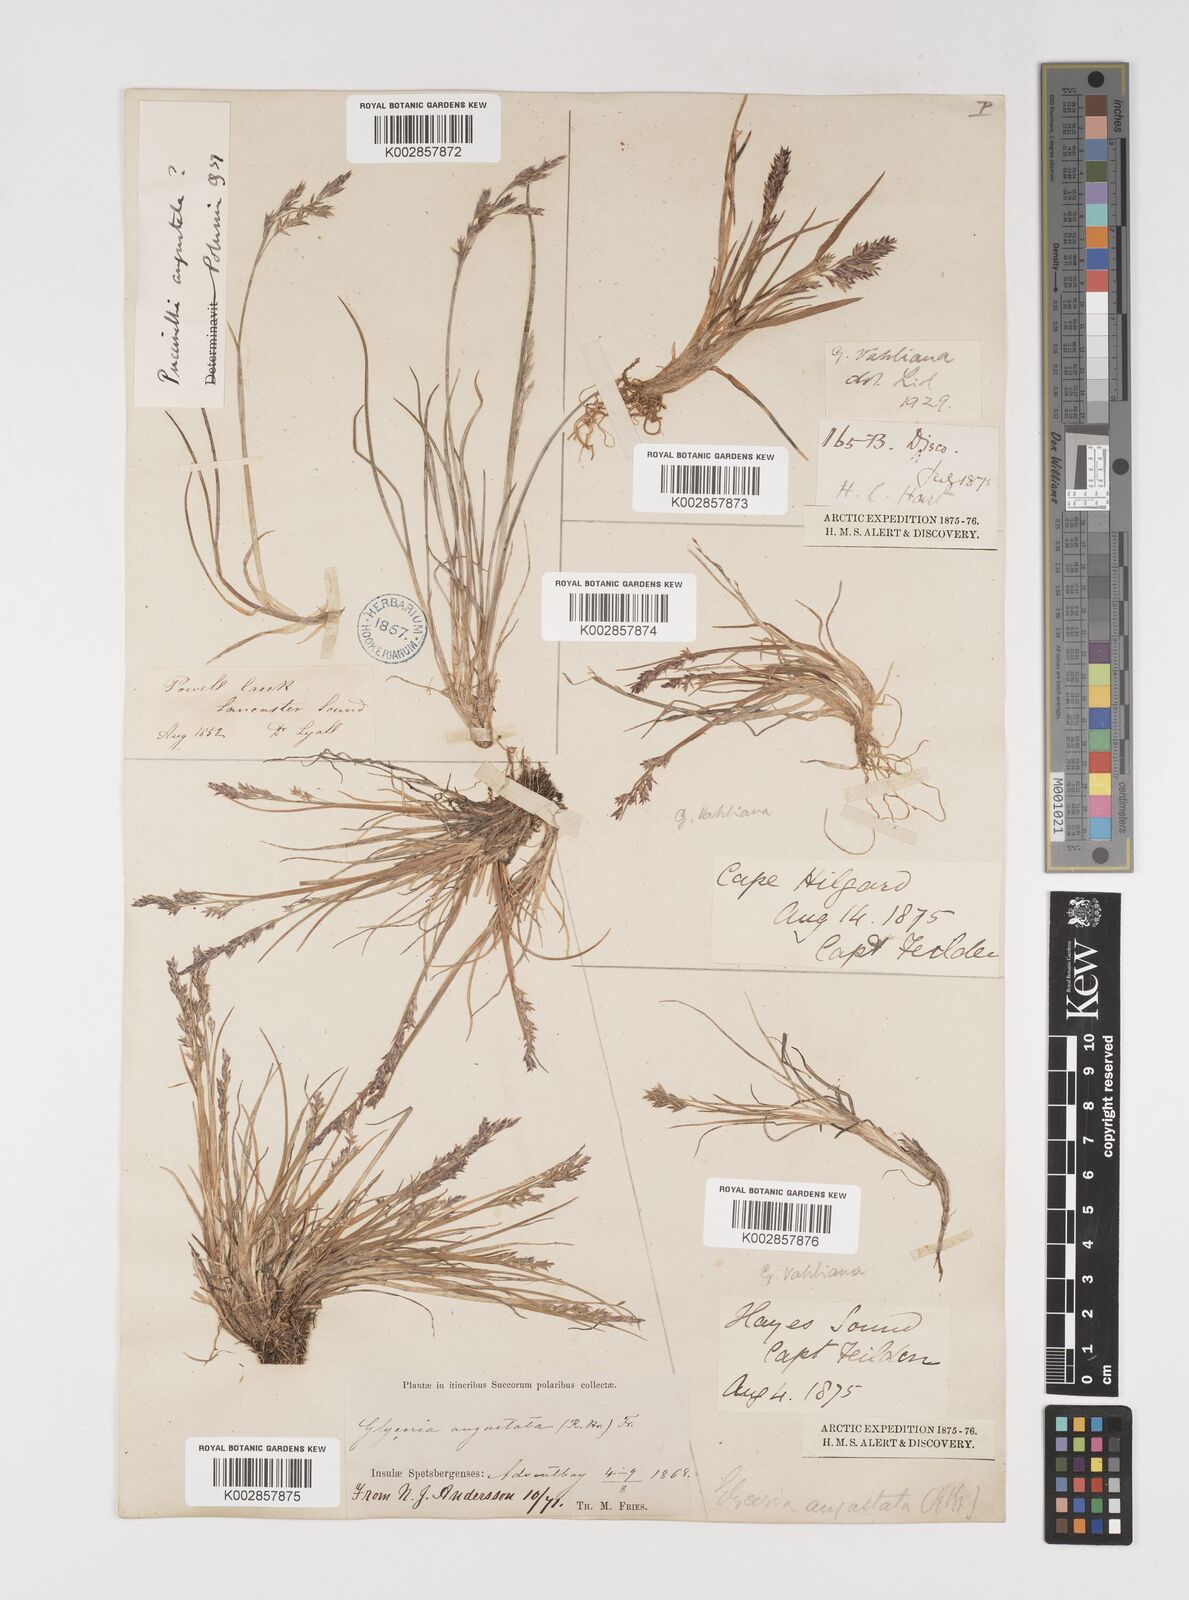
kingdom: Plantae
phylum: Tracheophyta
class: Liliopsida
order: Poales
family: Poaceae
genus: Puccinellia
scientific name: Puccinellia vahliana
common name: Vahl's alkaligrass
